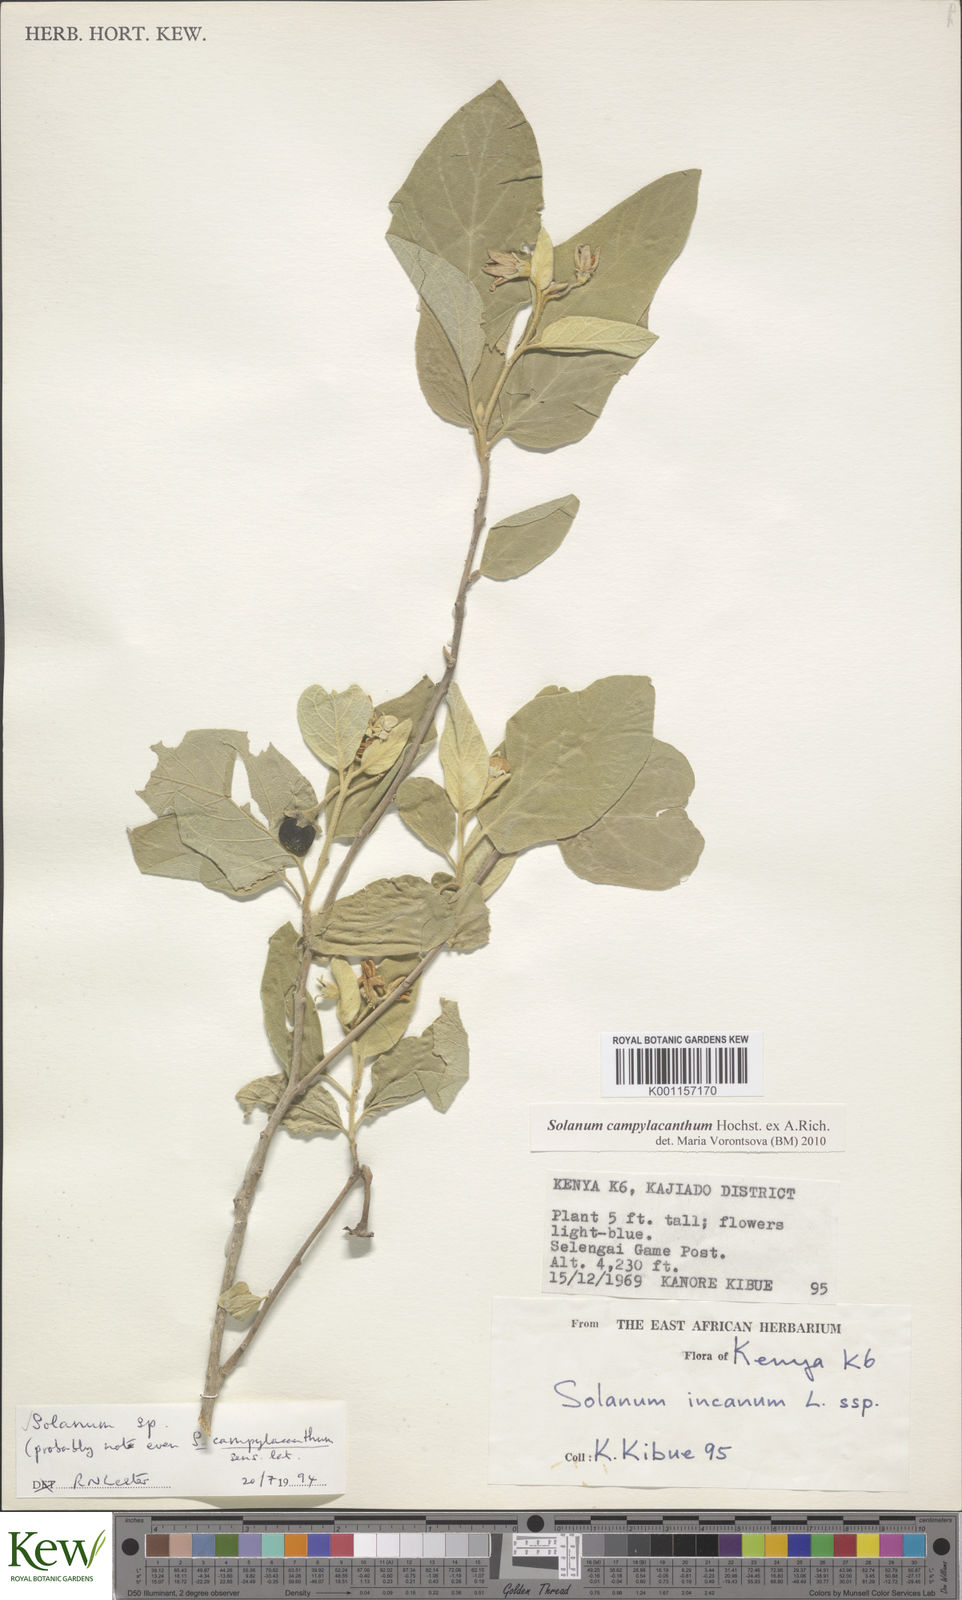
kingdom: Plantae
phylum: Tracheophyta
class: Magnoliopsida
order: Solanales
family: Solanaceae
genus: Solanum
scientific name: Solanum campylacanthum
